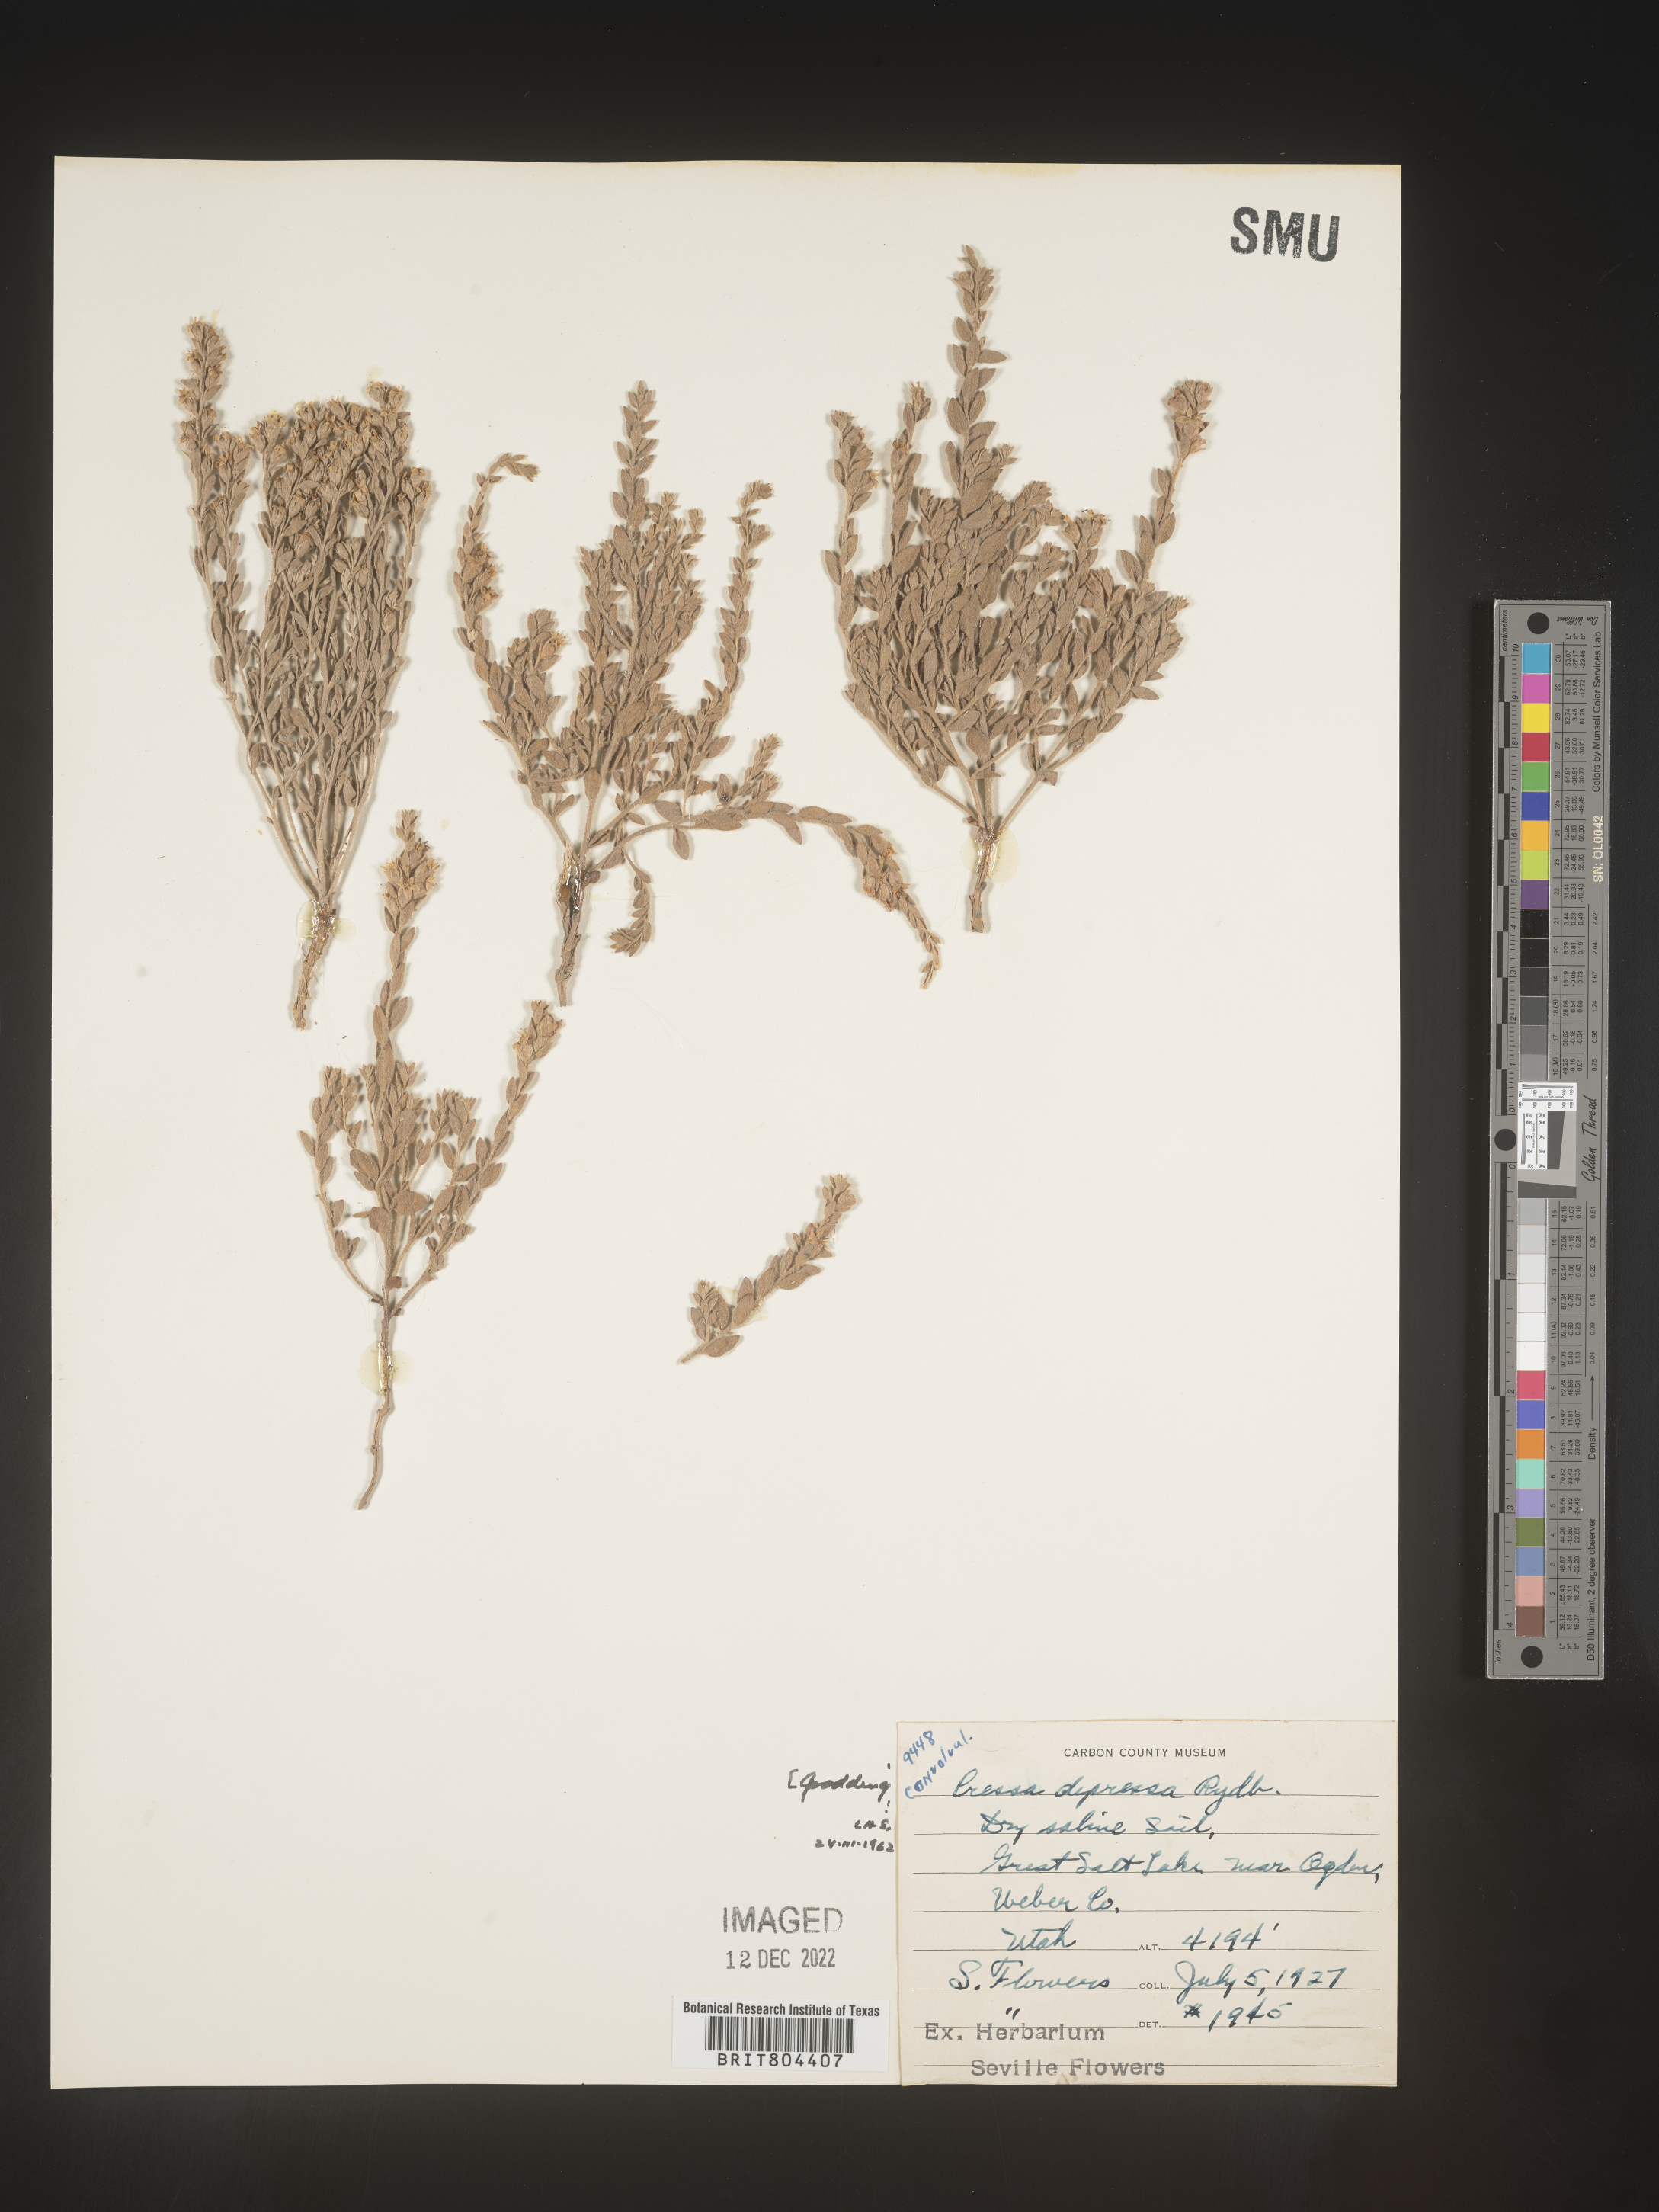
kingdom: Plantae
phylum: Tracheophyta
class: Magnoliopsida
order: Solanales
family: Convolvulaceae
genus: Cressa
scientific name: Cressa
